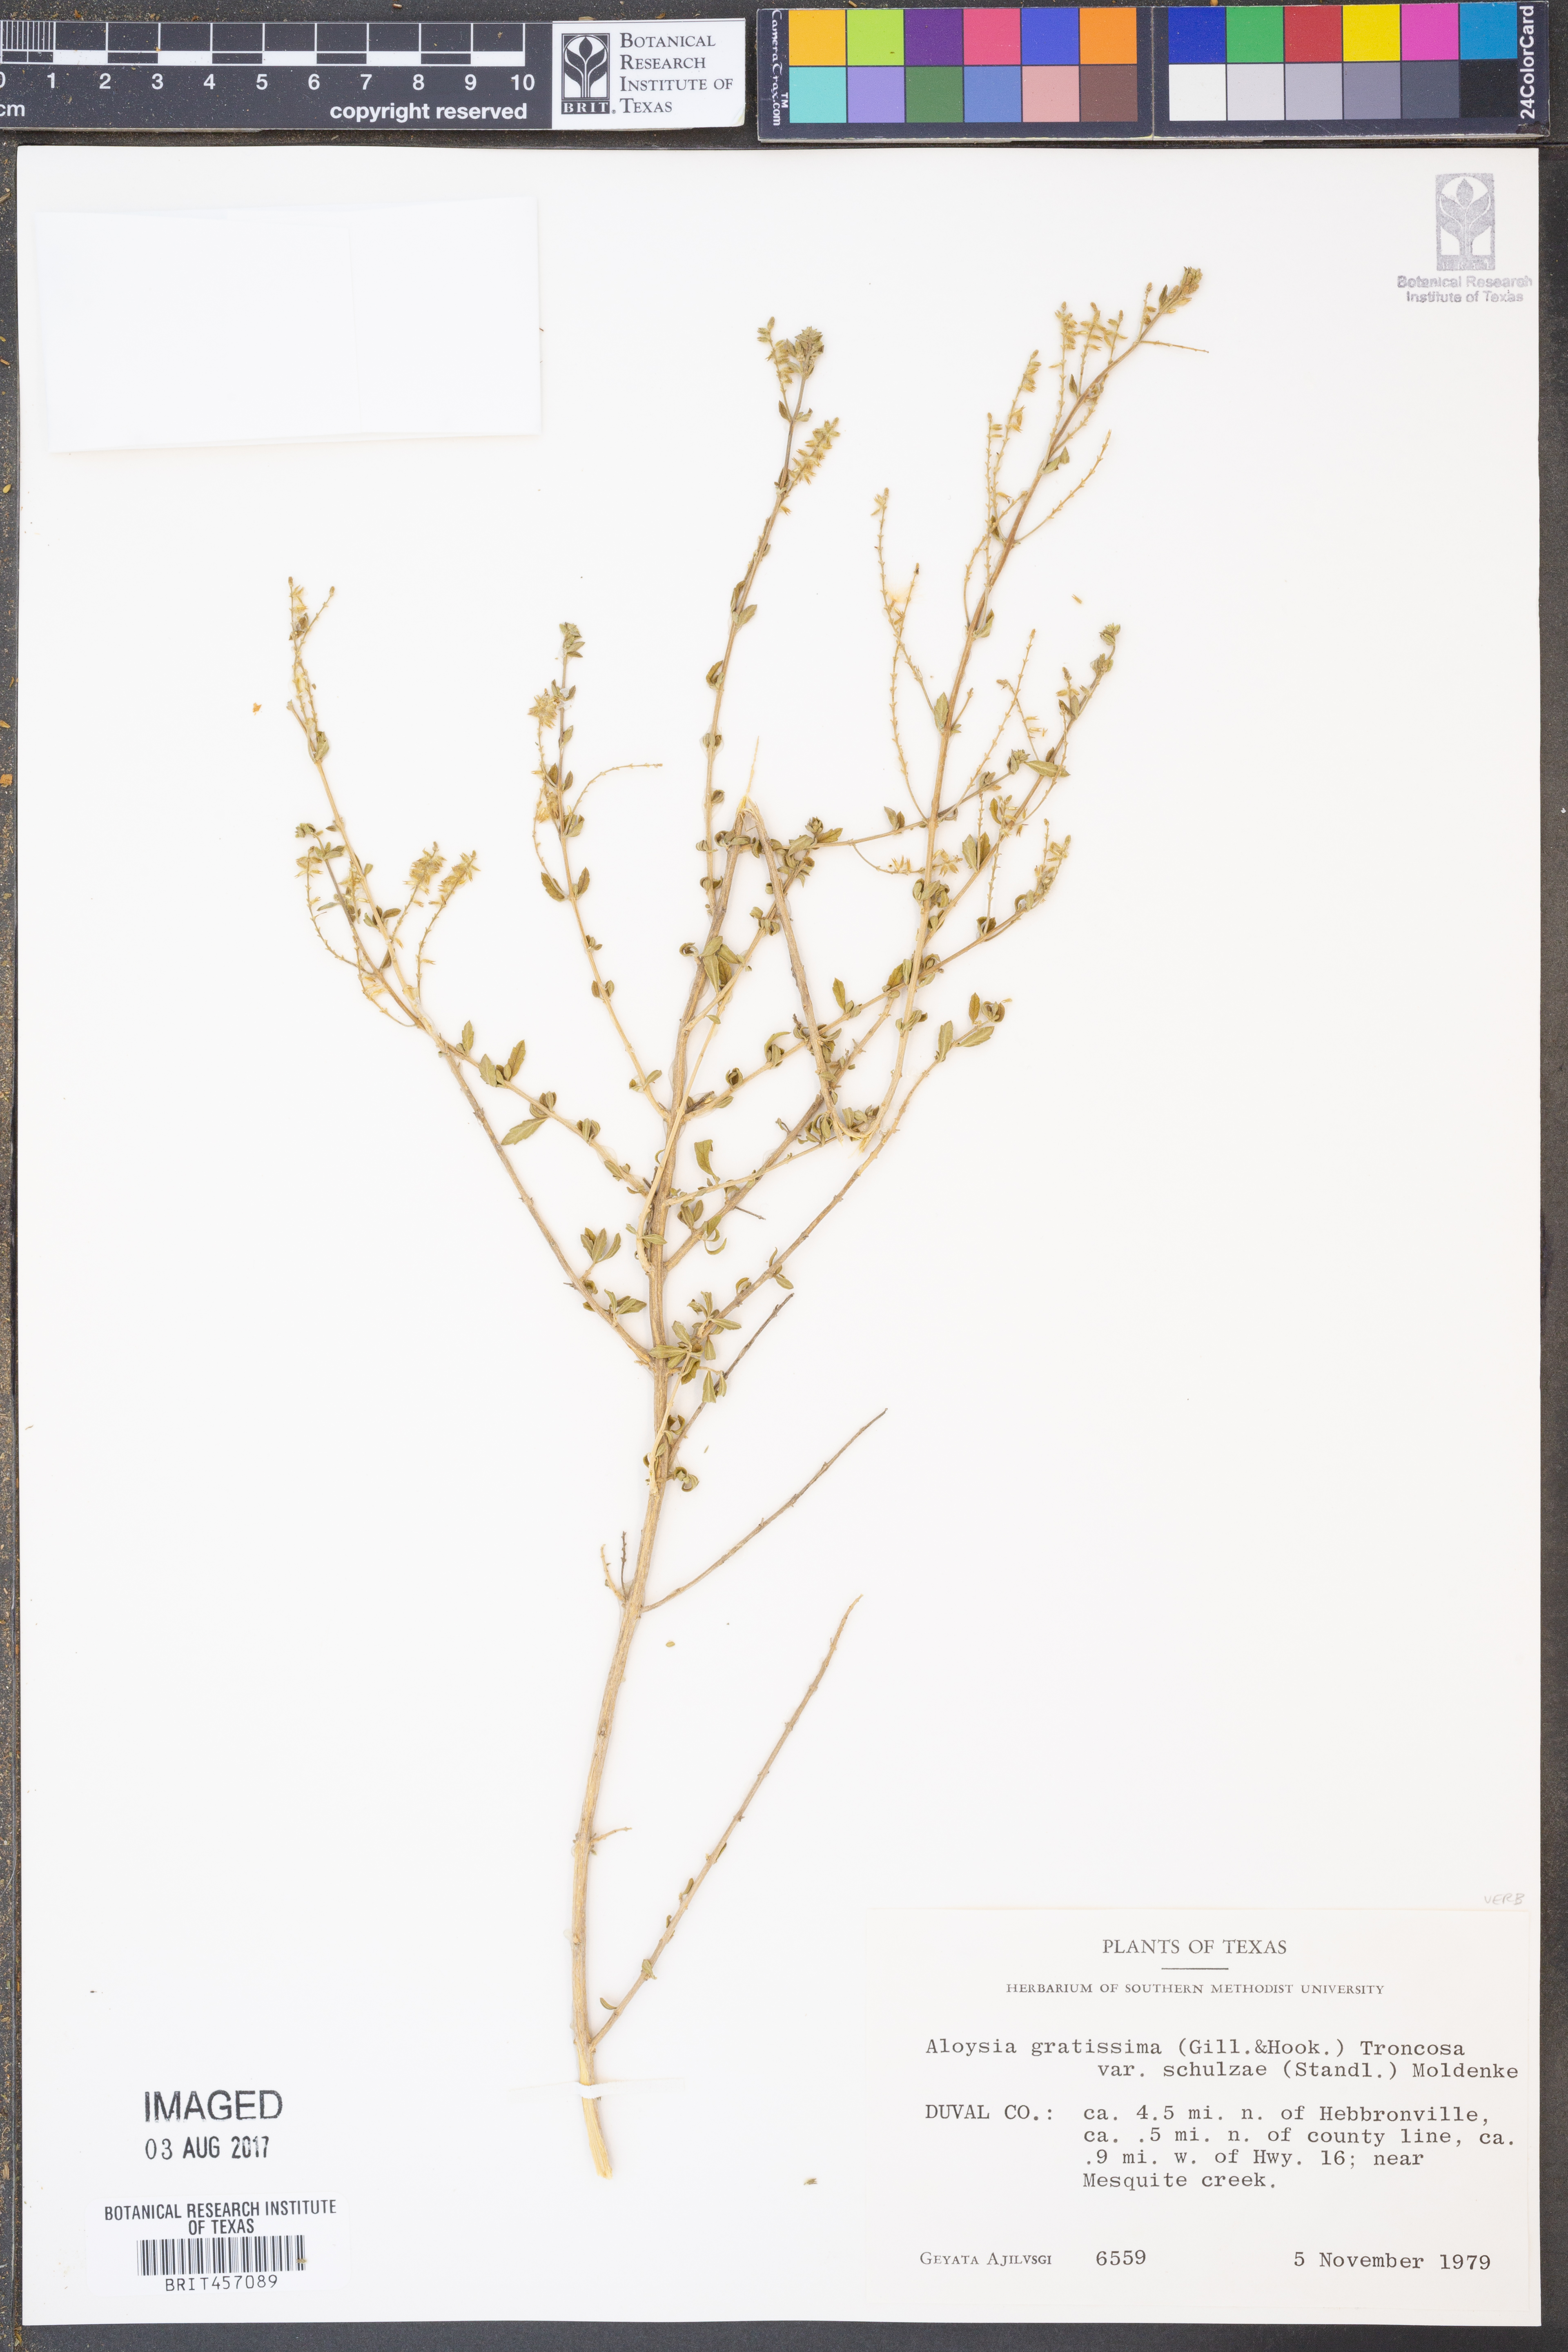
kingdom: Plantae
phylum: Tracheophyta
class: Magnoliopsida
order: Lamiales
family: Verbenaceae
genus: Aloysia
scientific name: Aloysia gratissima
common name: Common bee-brush
